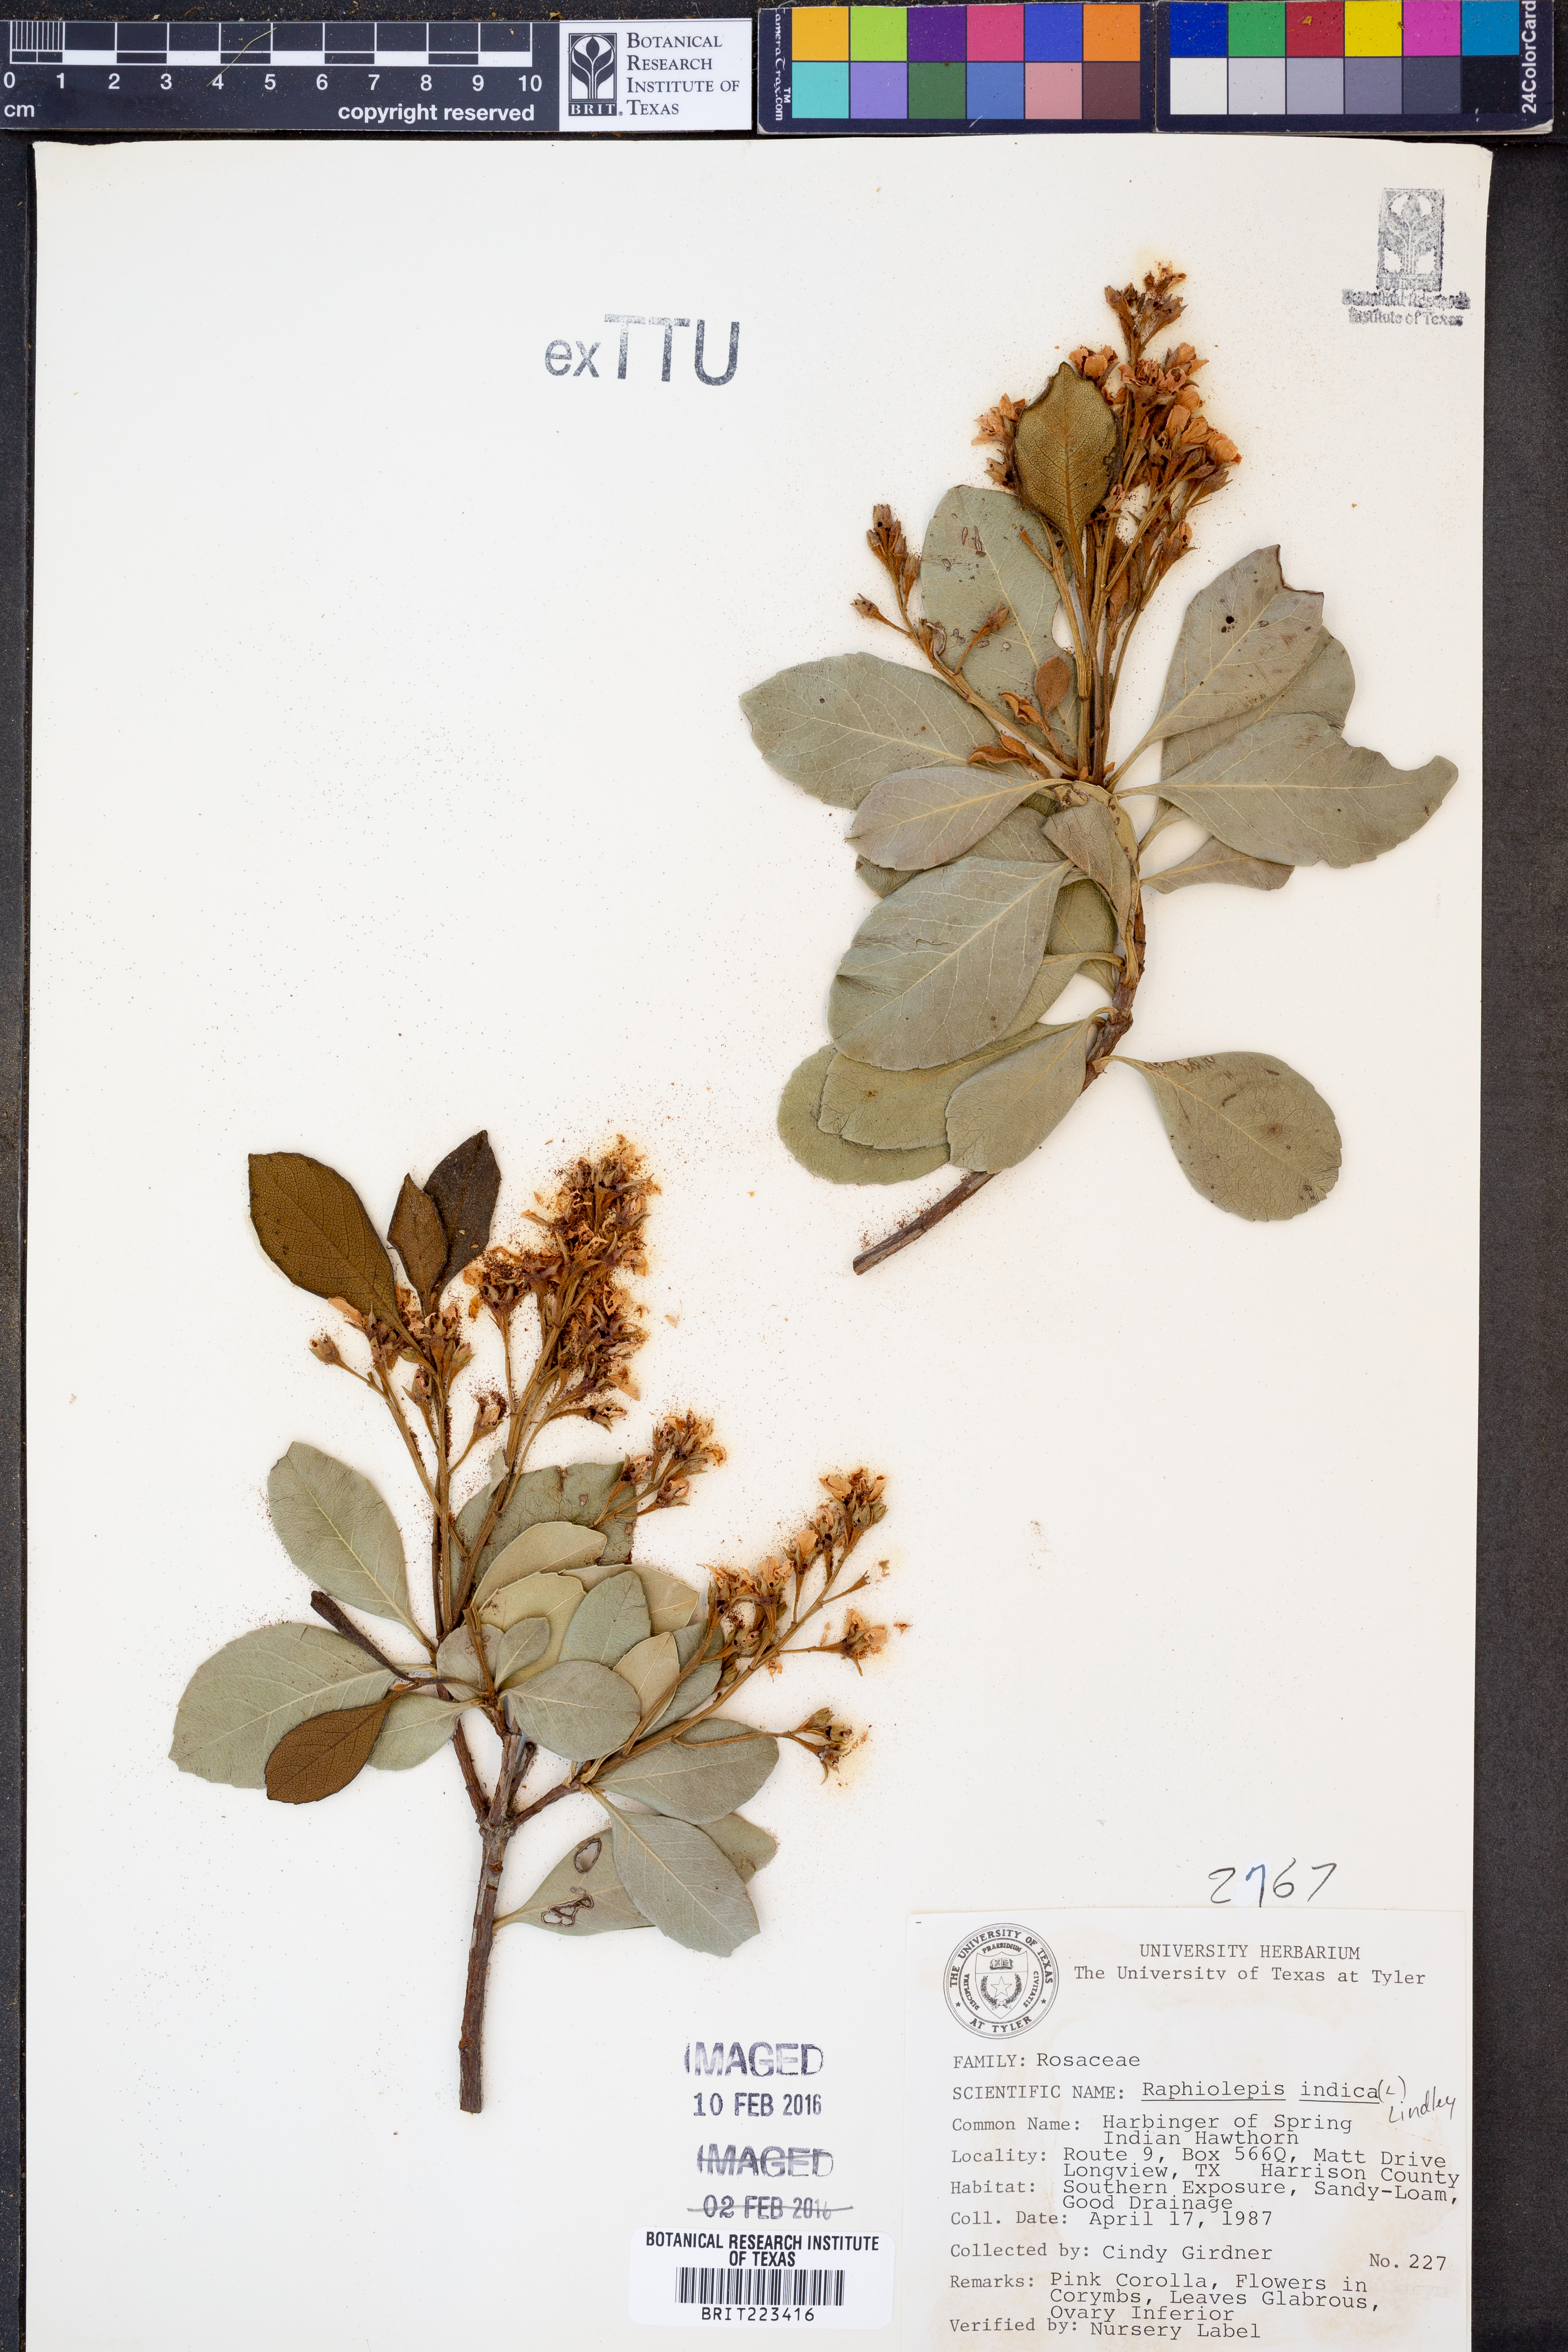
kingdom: Plantae
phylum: Tracheophyta
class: Magnoliopsida
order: Rosales
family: Rosaceae
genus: Rhaphiolepis
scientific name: Rhaphiolepis indica
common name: India-hawthorn
